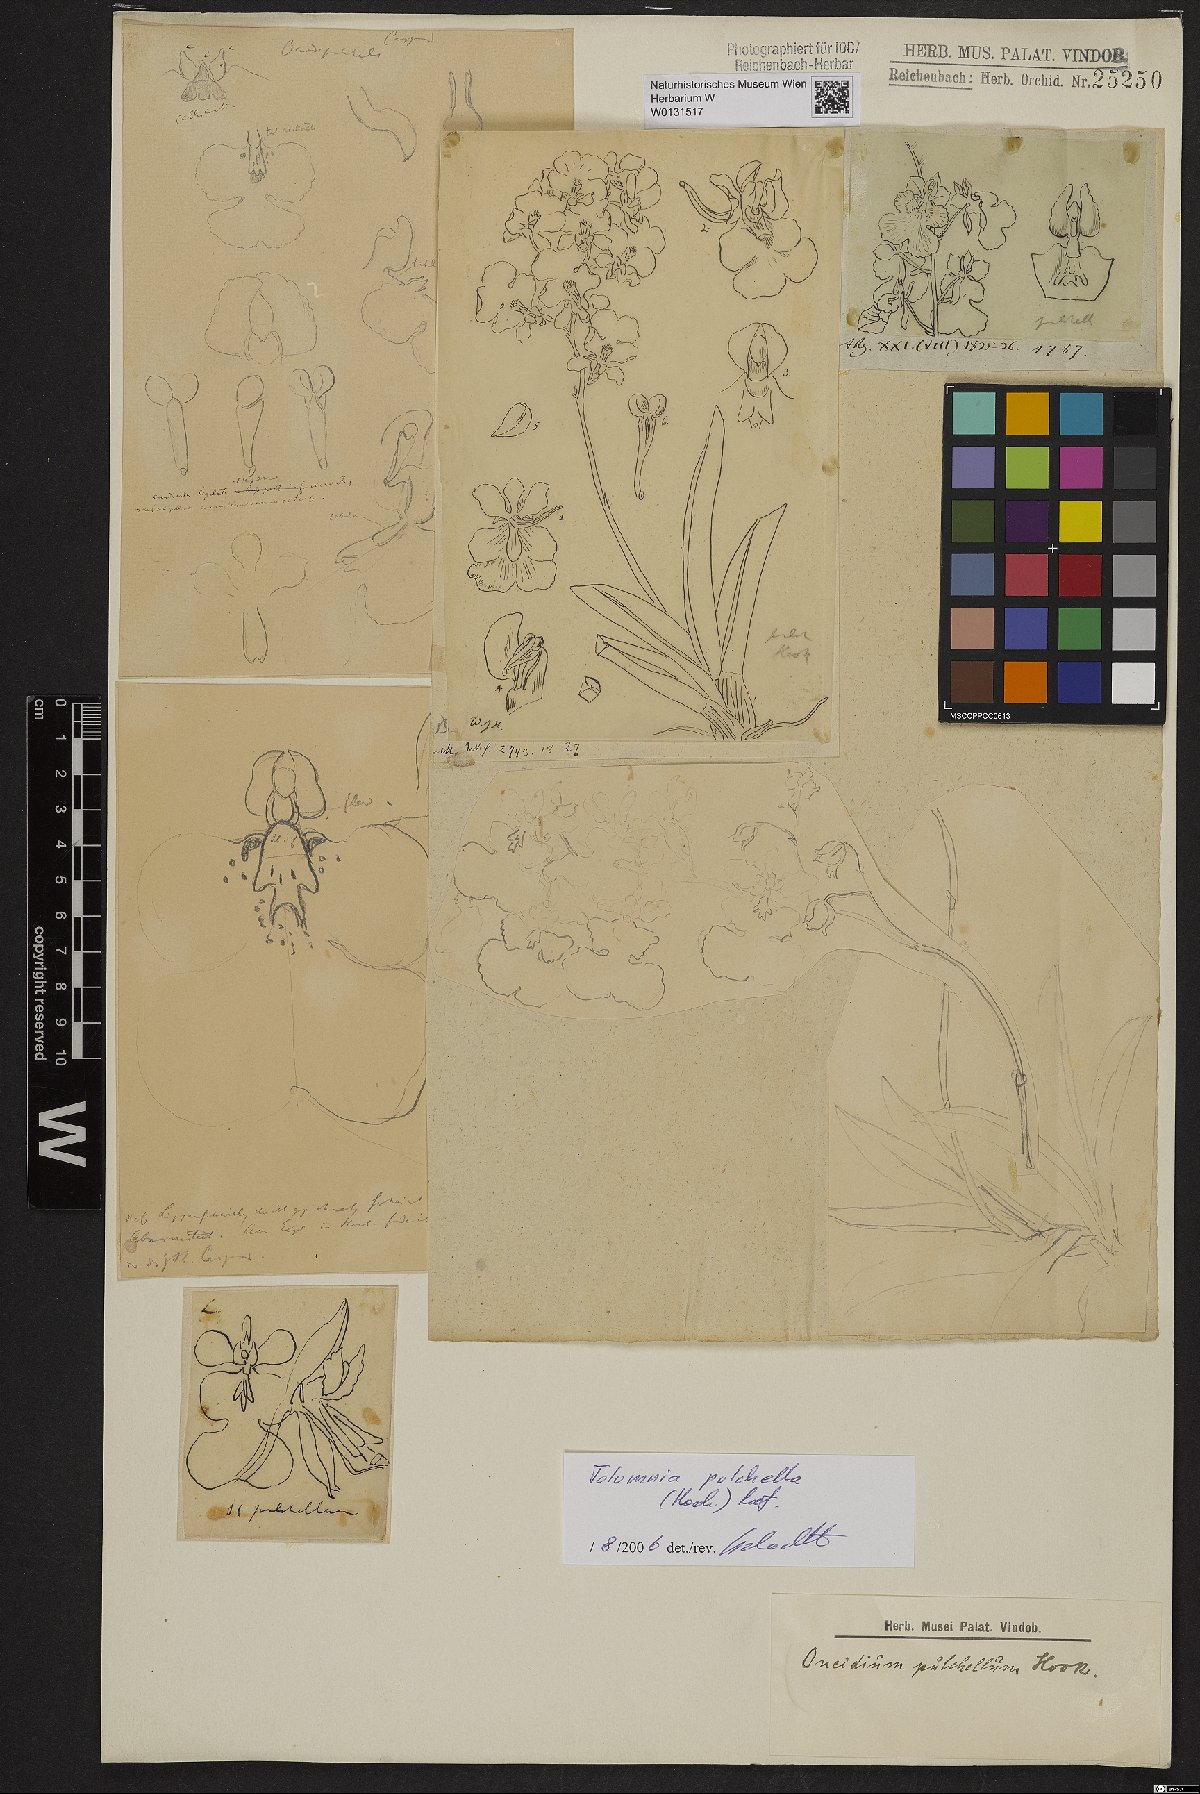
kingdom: Plantae
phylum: Tracheophyta
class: Liliopsida
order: Asparagales
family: Orchidaceae
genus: Tolumnia
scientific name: Tolumnia pulchella
